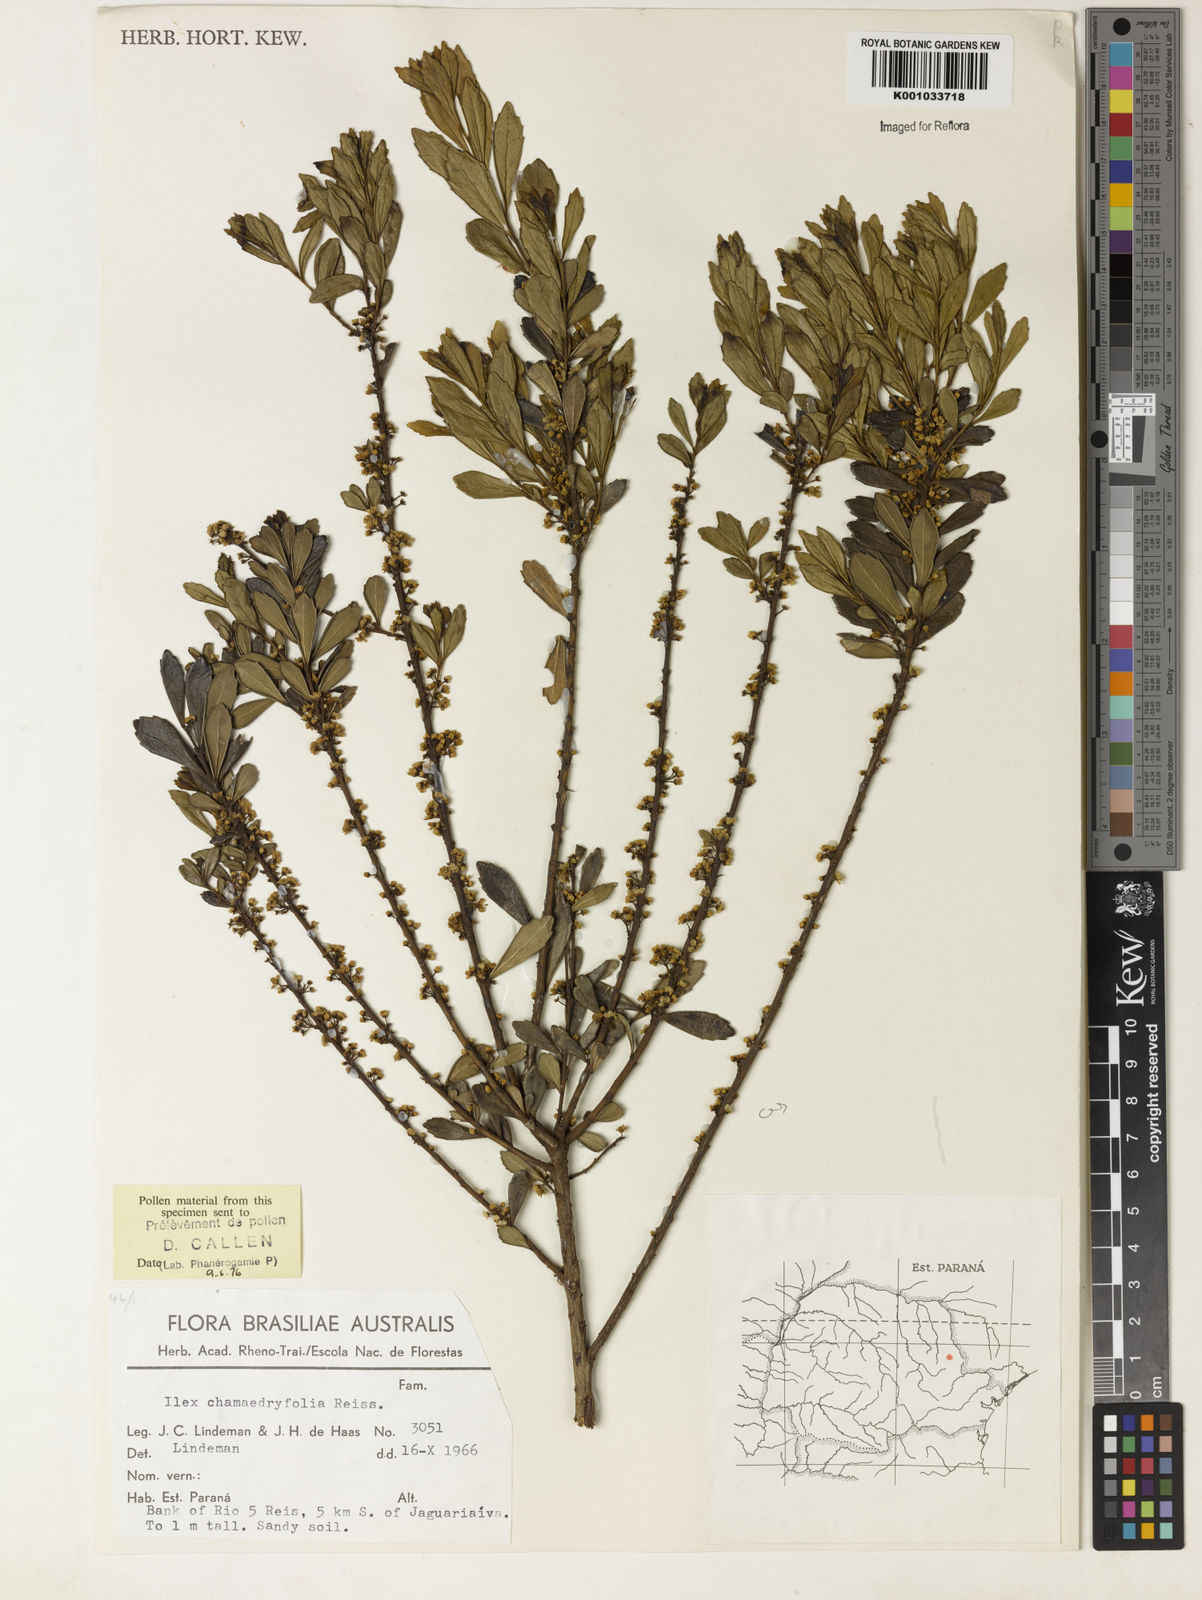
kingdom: Plantae
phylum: Tracheophyta
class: Magnoliopsida
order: Aquifoliales
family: Aquifoliaceae
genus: Ilex
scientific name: Ilex chamaedryfolia
